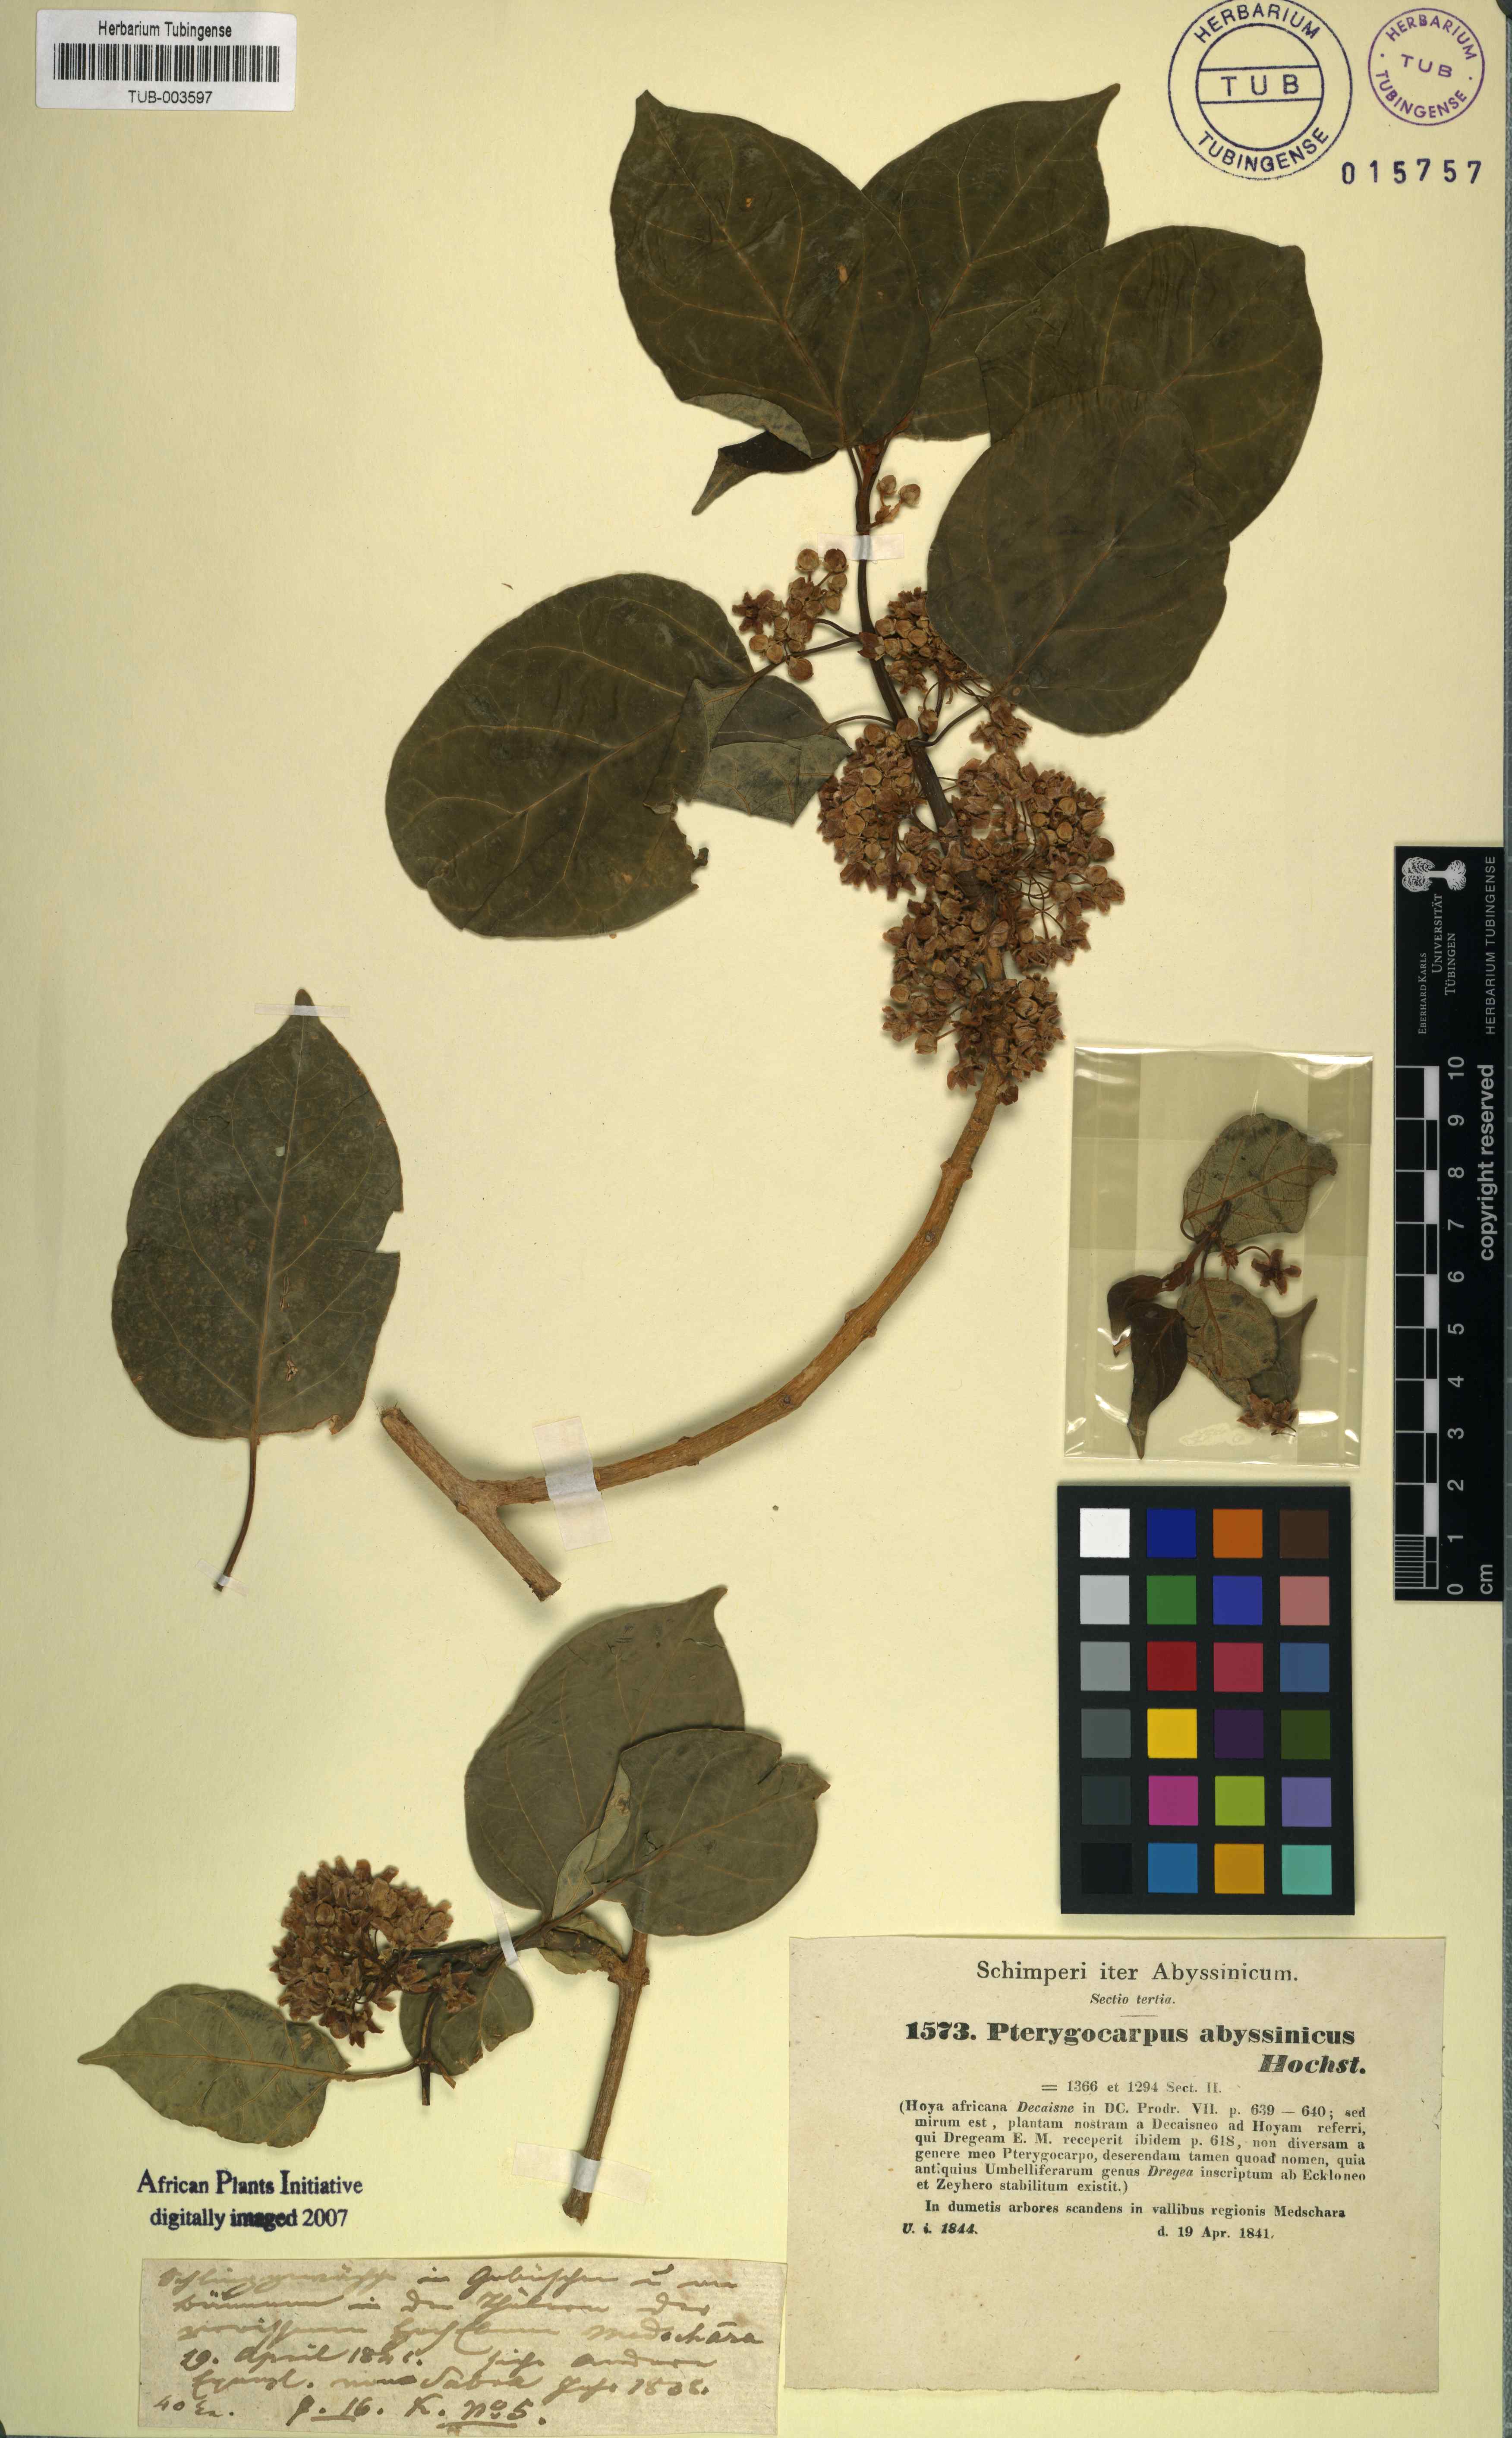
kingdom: Plantae
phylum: Tracheophyta
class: Magnoliopsida
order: Gentianales
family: Apocynaceae
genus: Stephanotis
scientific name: Stephanotis abyssinica
